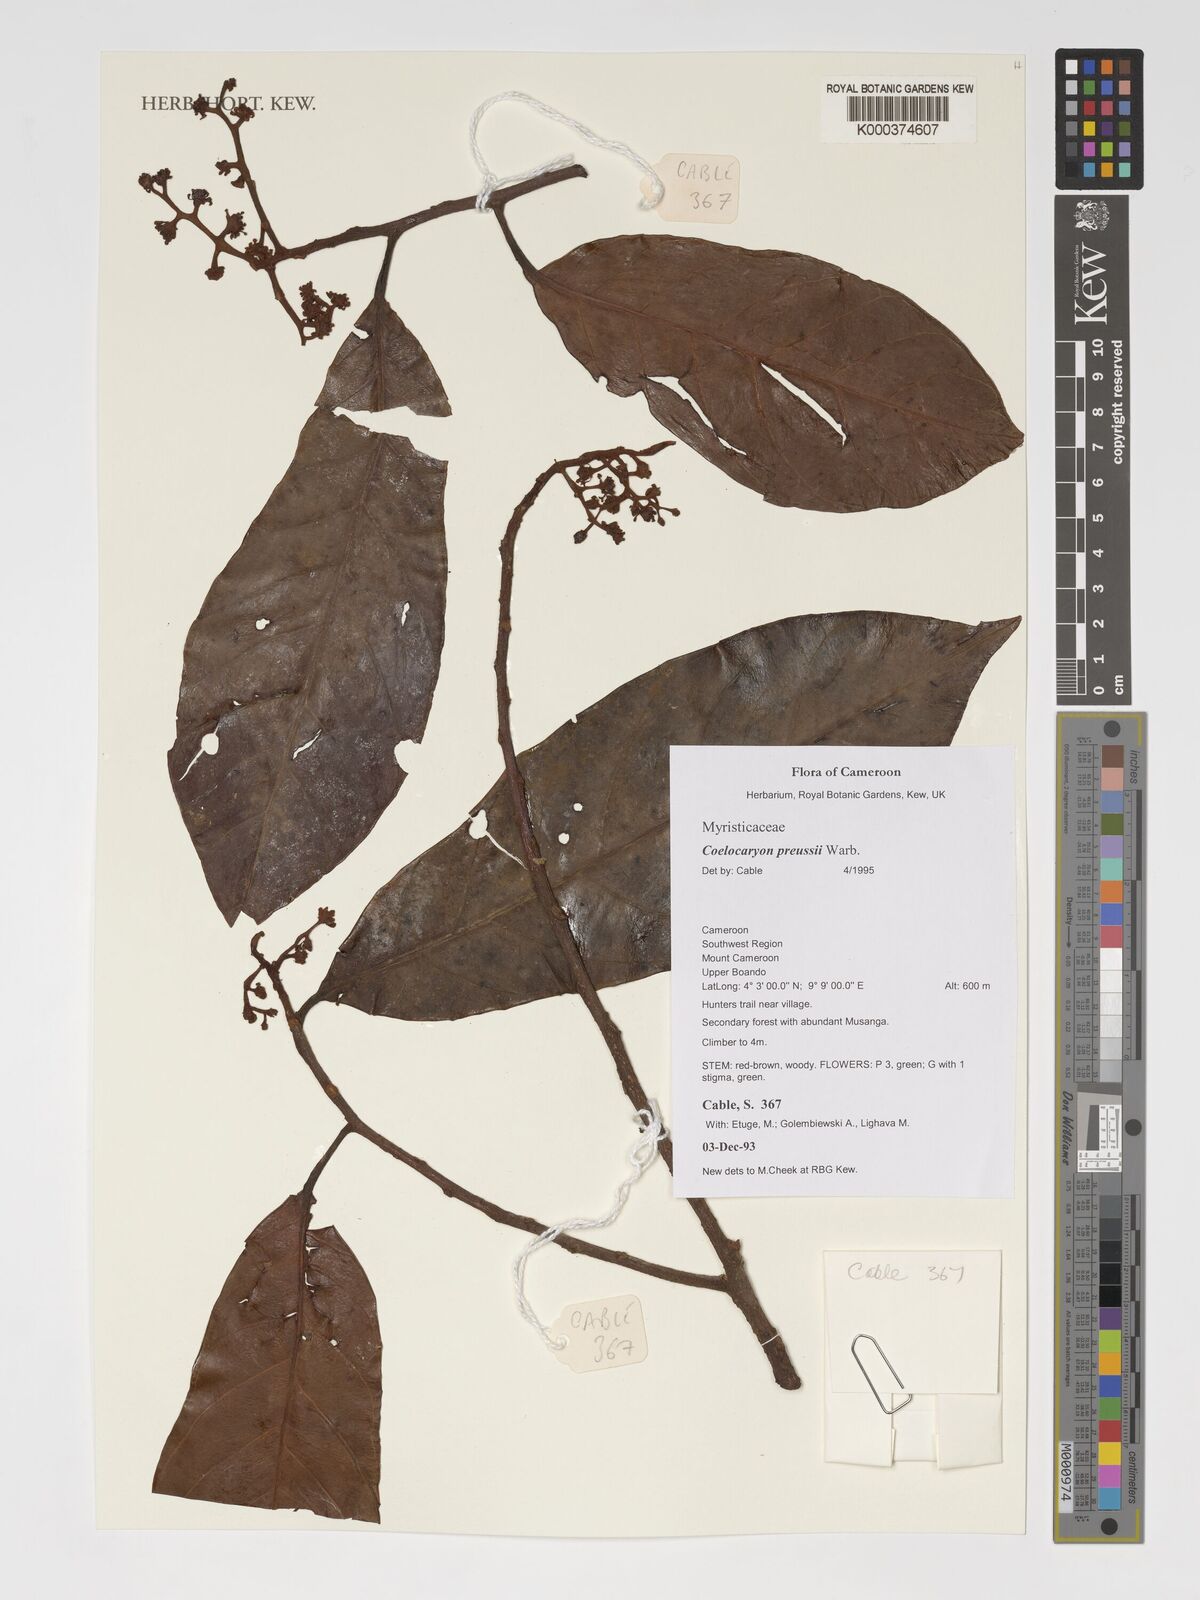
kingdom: Plantae
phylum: Tracheophyta
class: Magnoliopsida
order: Magnoliales
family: Myristicaceae
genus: Coelocaryon
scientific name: Coelocaryon preussii
